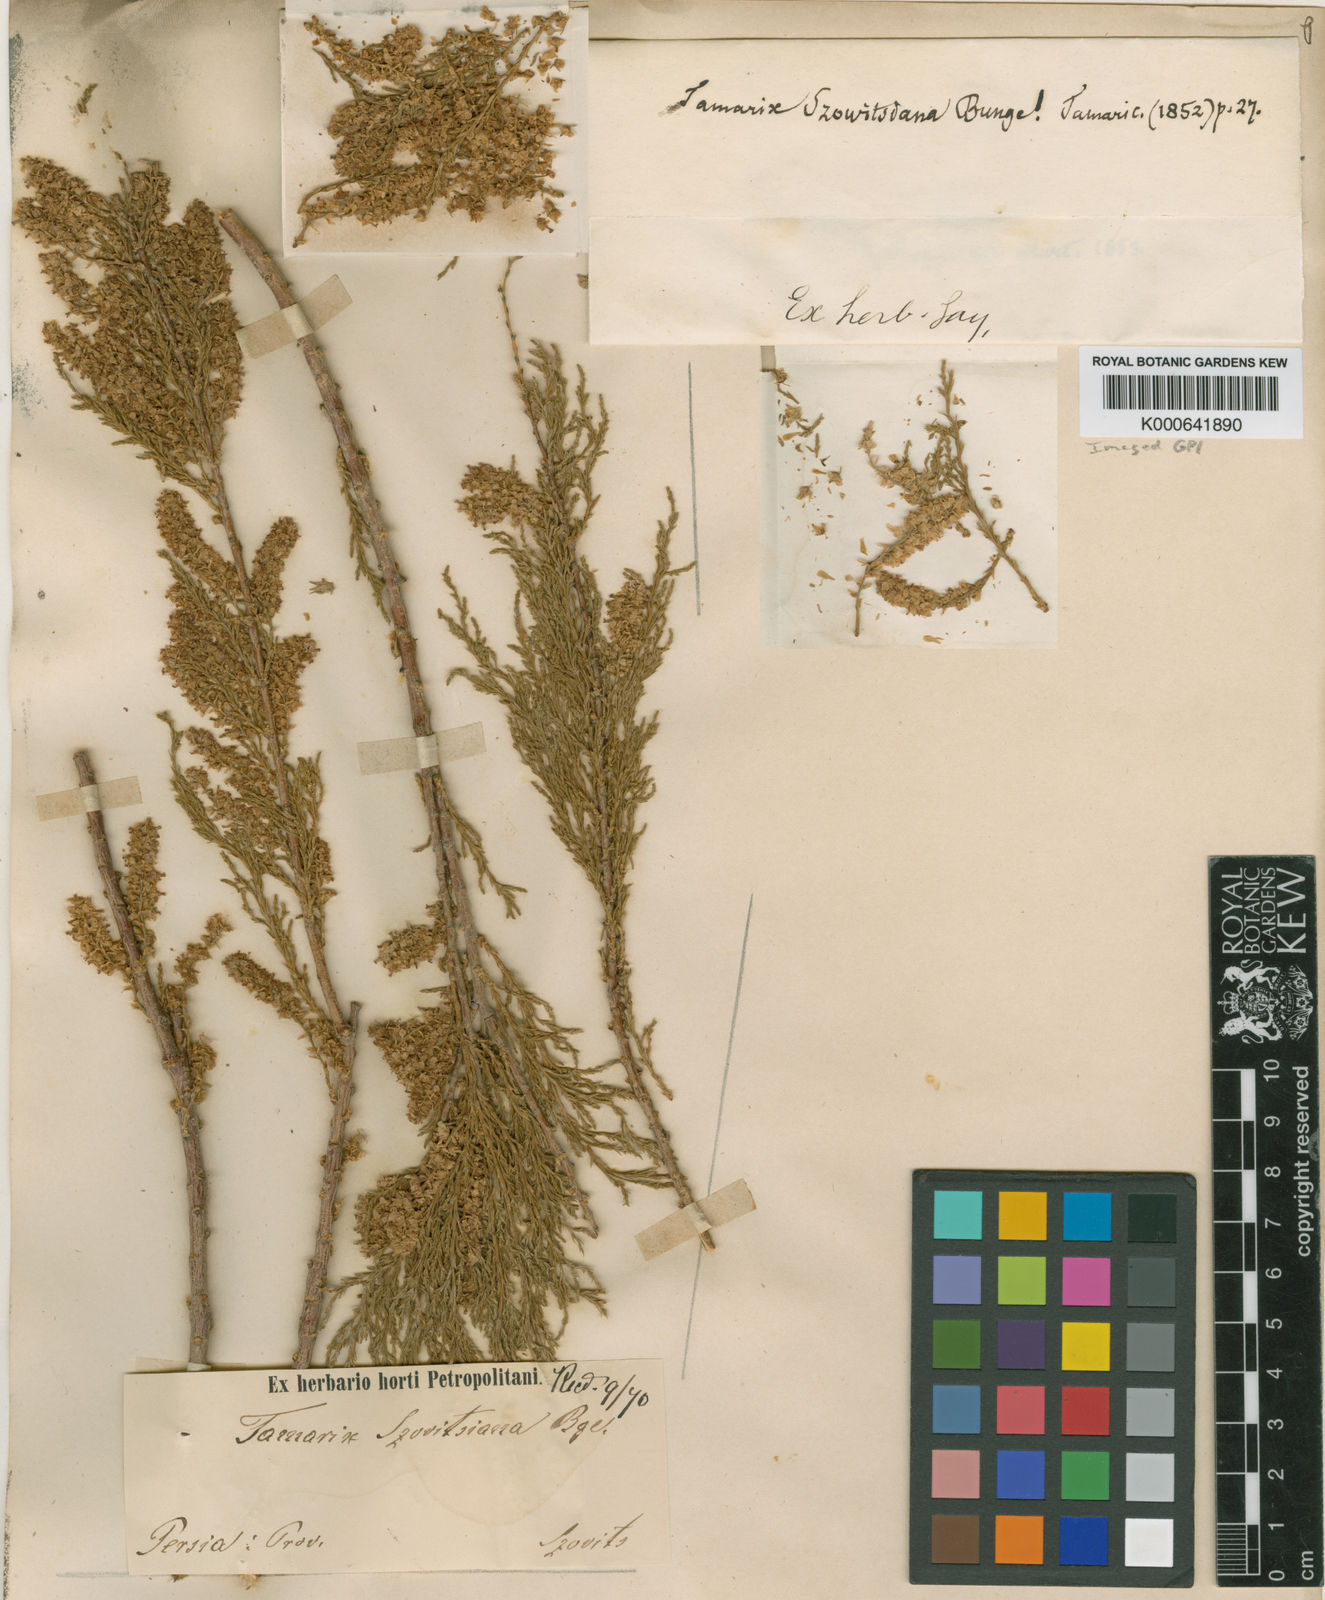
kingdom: Plantae
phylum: Tracheophyta
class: Magnoliopsida
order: Caryophyllales
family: Tamaricaceae
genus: Tamarix
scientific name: Tamarix szovitsiana
